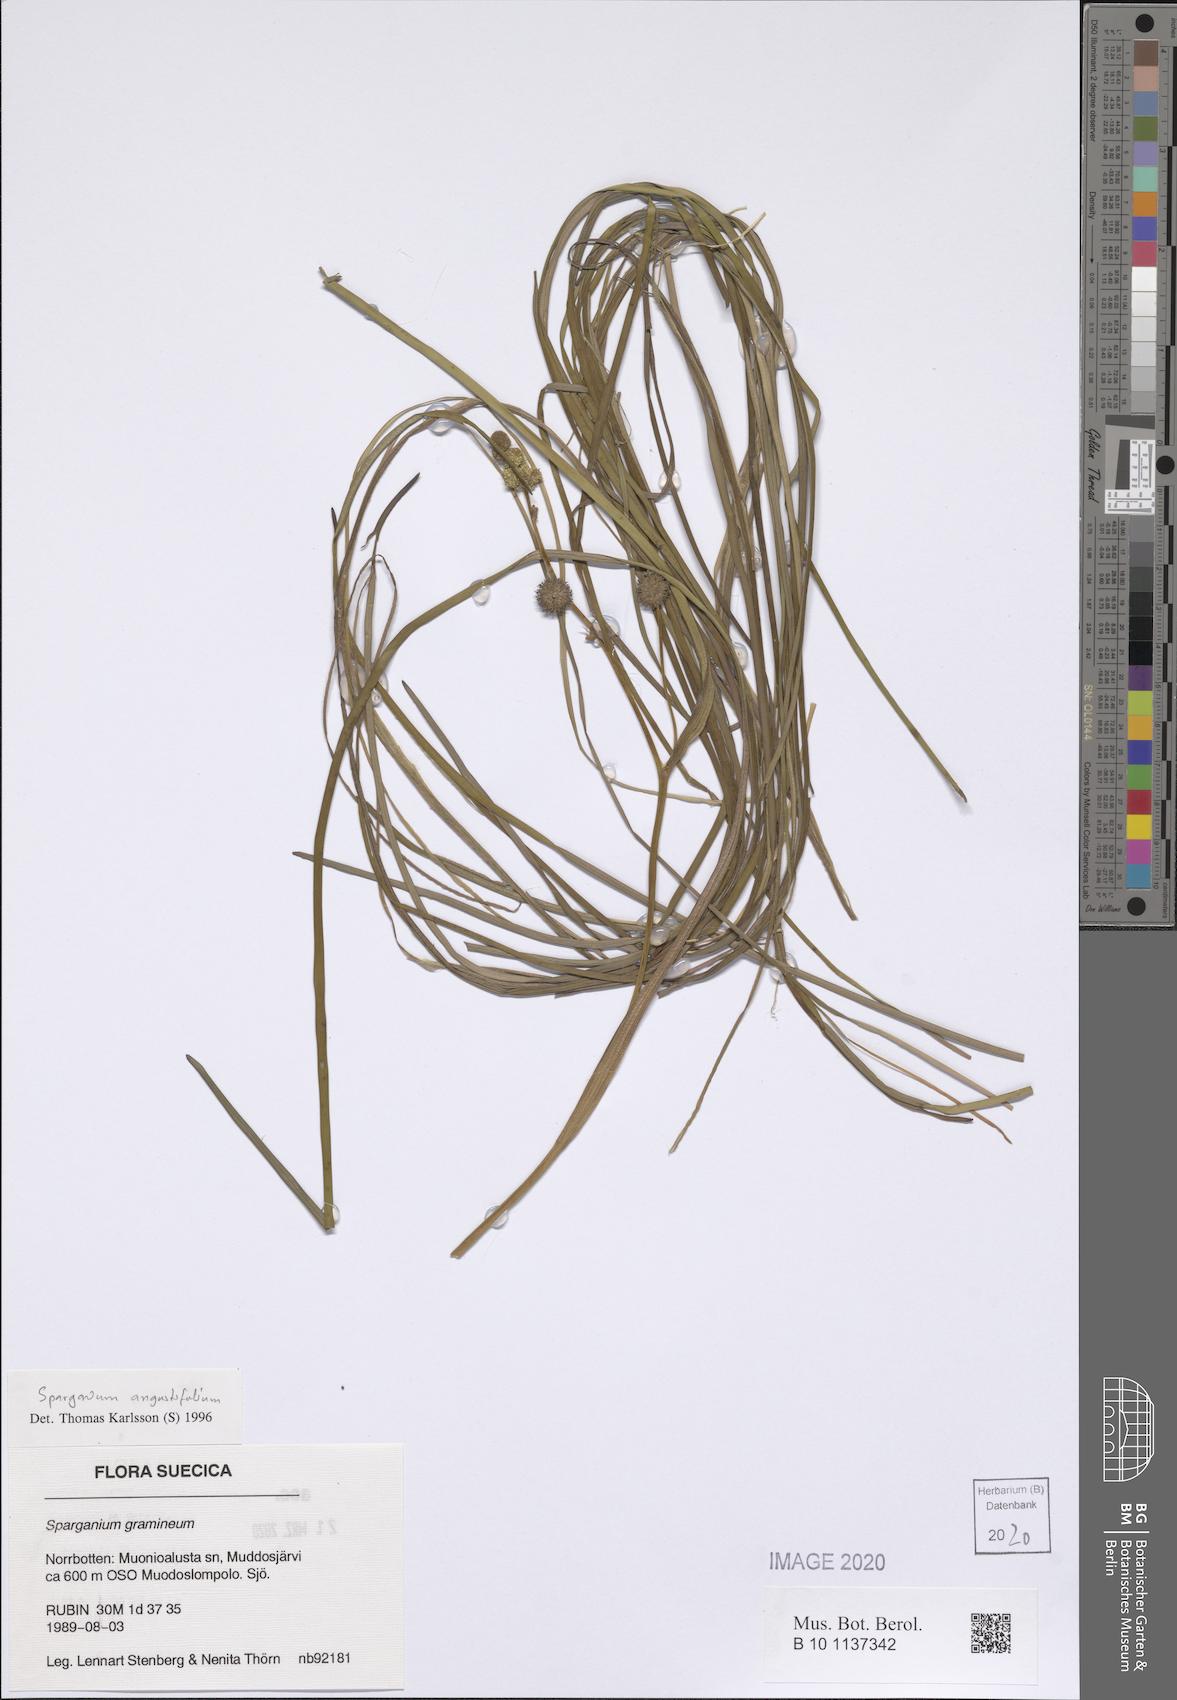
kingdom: Plantae
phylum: Tracheophyta
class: Liliopsida
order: Poales
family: Typhaceae
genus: Sparganium
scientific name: Sparganium angustifolium
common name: Floating bur-reed
